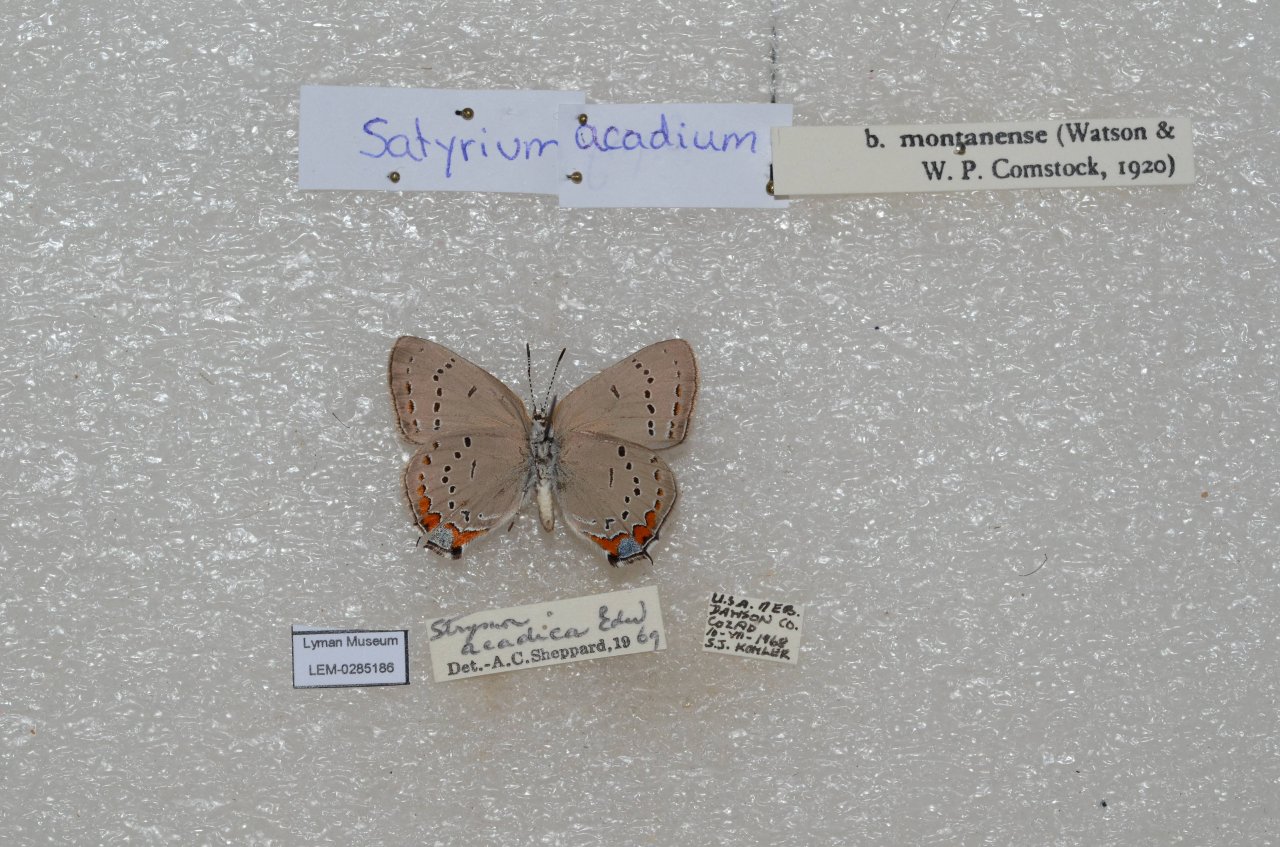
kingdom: Animalia
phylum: Arthropoda
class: Insecta
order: Lepidoptera
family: Lycaenidae
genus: Strymon
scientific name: Strymon acadica
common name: Acadian Hairstreak
